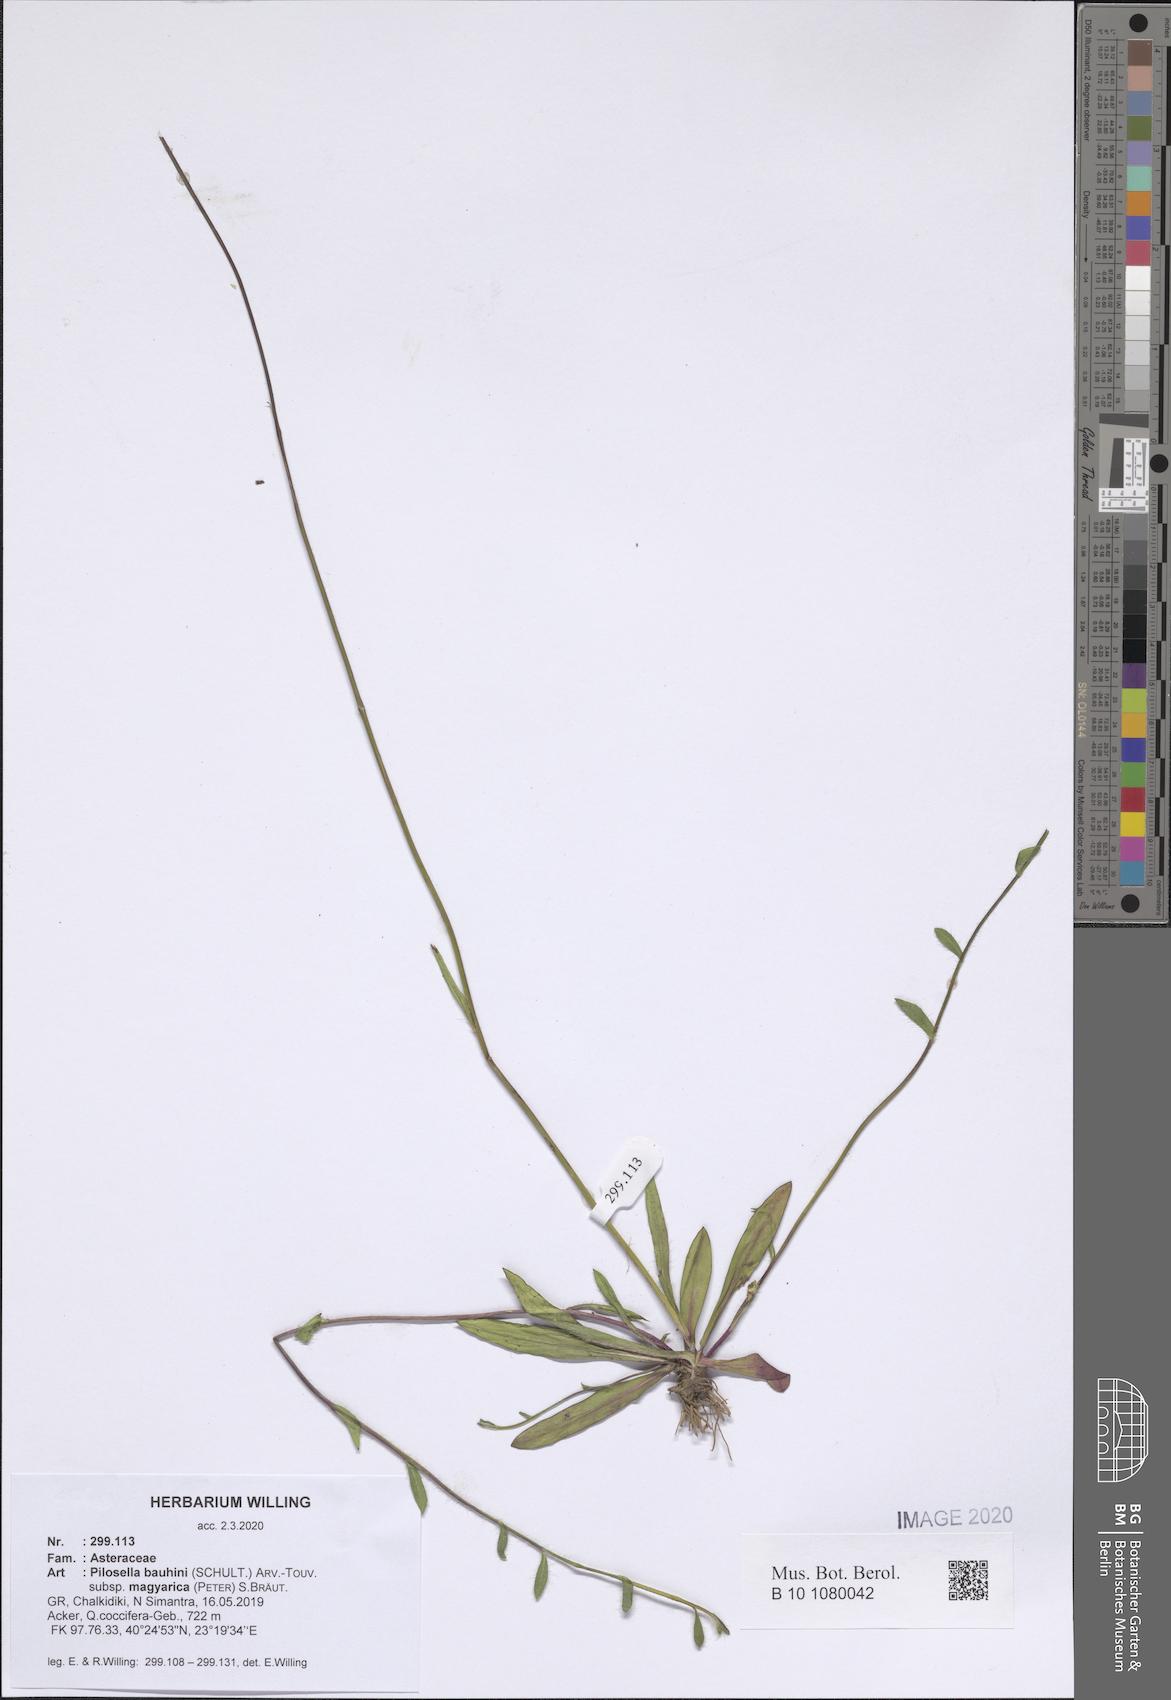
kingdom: Plantae
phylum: Tracheophyta
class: Magnoliopsida
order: Asterales
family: Asteraceae
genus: Pilosella
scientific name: Pilosella bauhini
